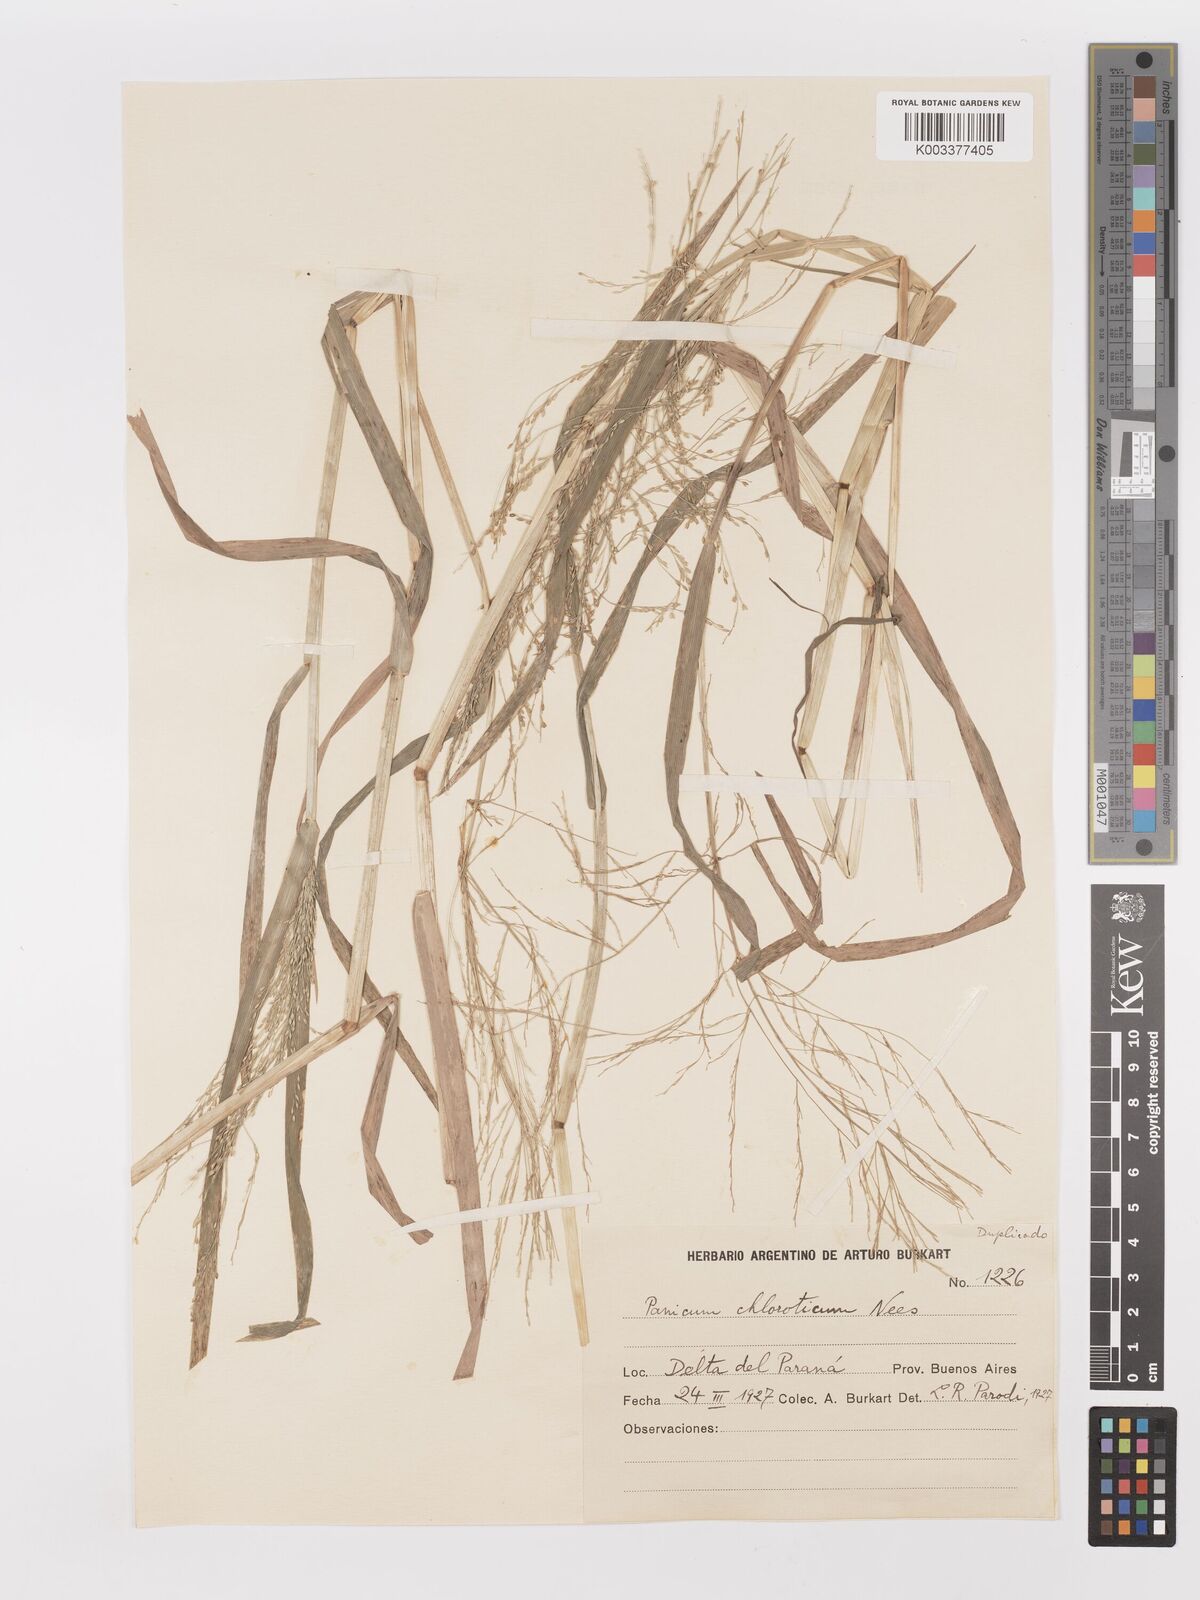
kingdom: Plantae
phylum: Tracheophyta
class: Liliopsida
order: Poales
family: Poaceae
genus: Panicum
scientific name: Panicum dichotomiflorum
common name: Autumn millet
